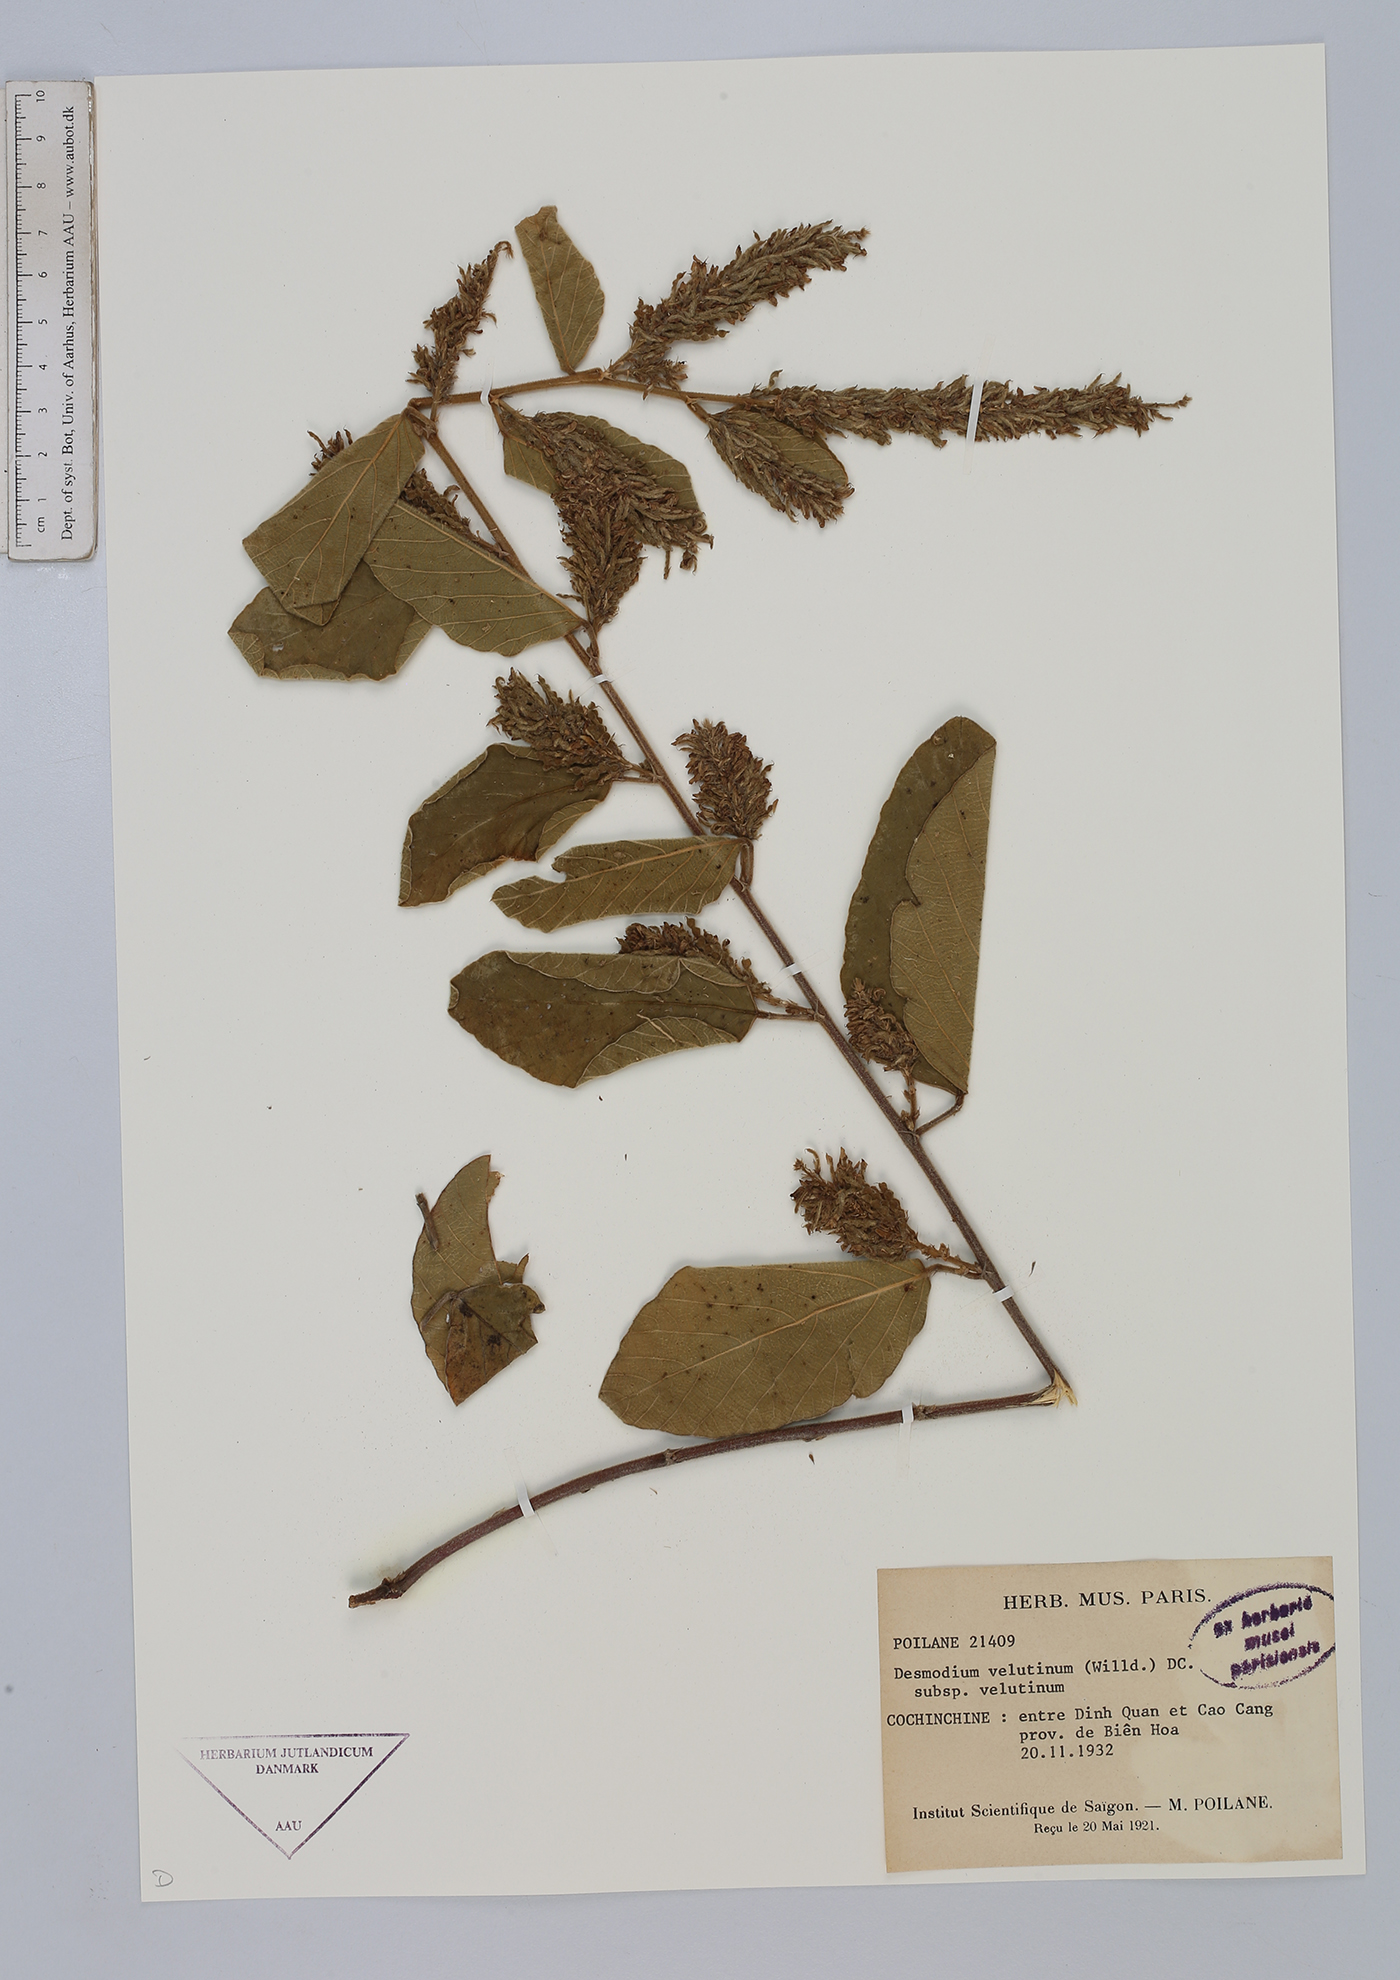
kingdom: Plantae
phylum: Tracheophyta
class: Magnoliopsida
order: Fabales
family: Fabaceae
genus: Polhillides
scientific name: Polhillides velutina
